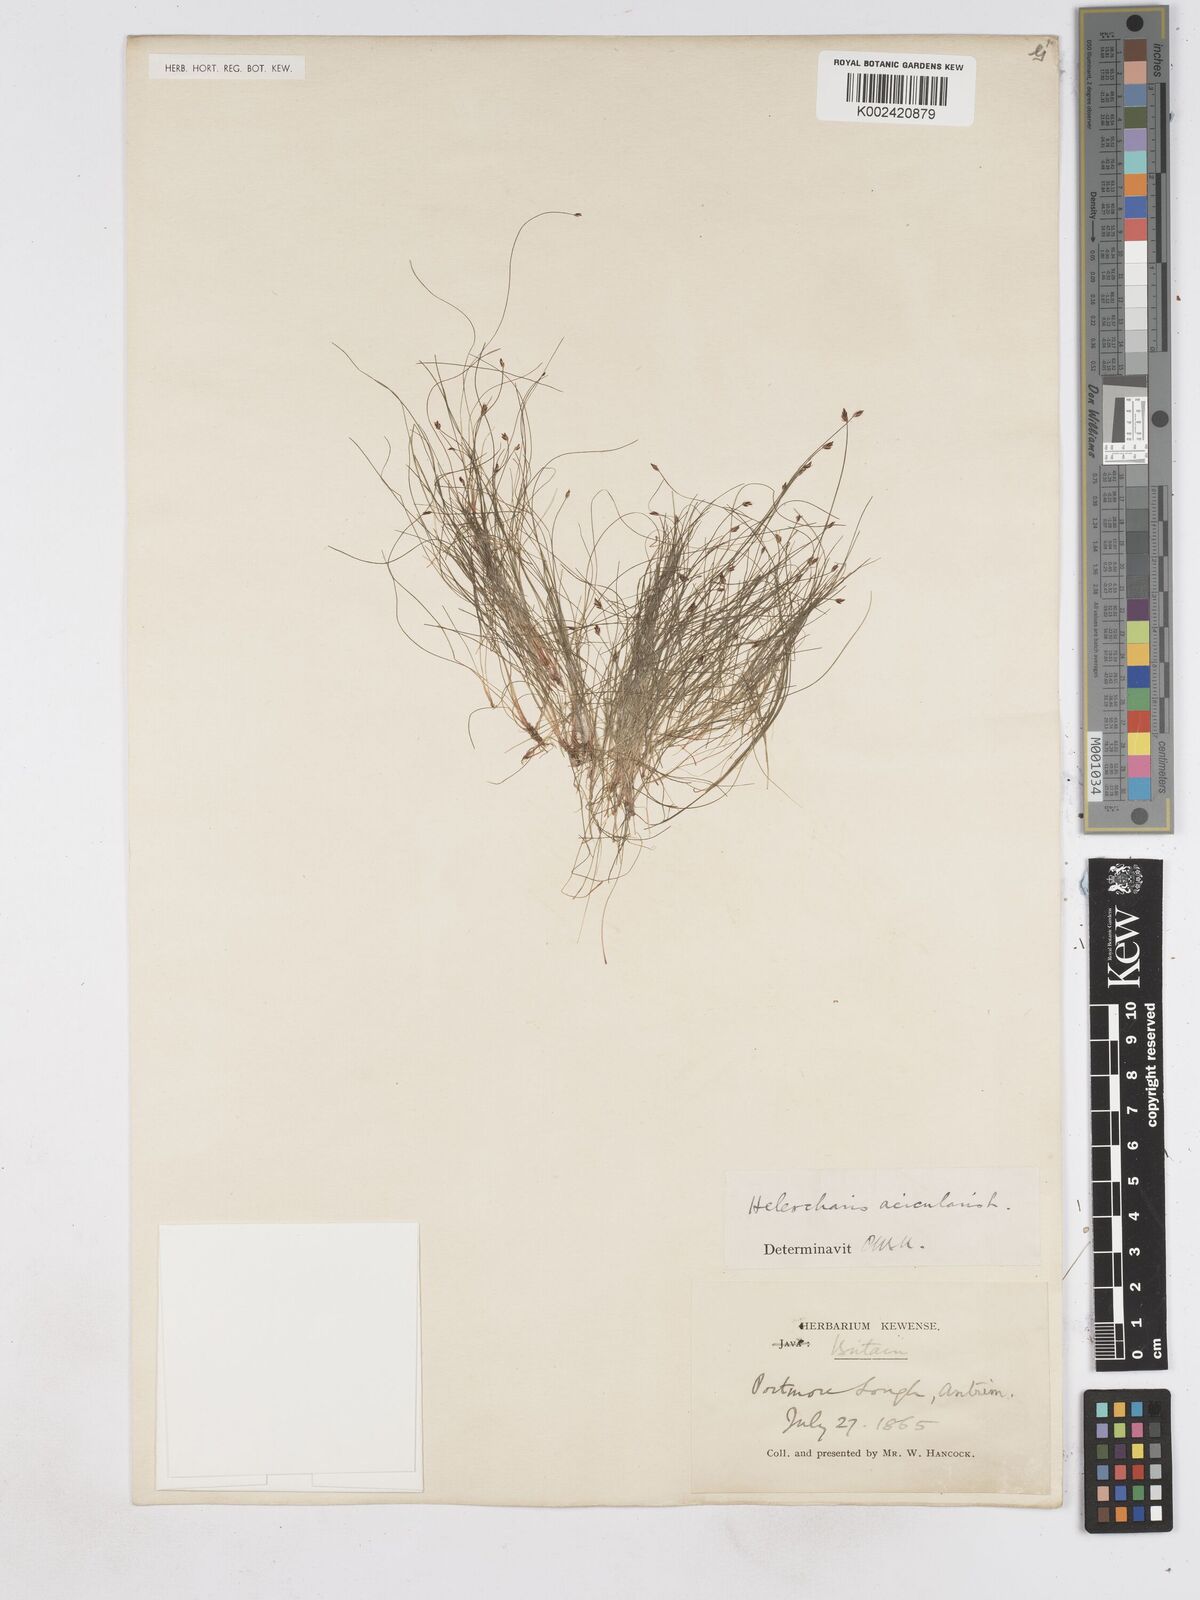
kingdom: Plantae
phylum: Tracheophyta
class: Liliopsida
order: Poales
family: Cyperaceae
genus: Eleocharis
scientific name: Eleocharis acicularis
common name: Needle spike-rush
